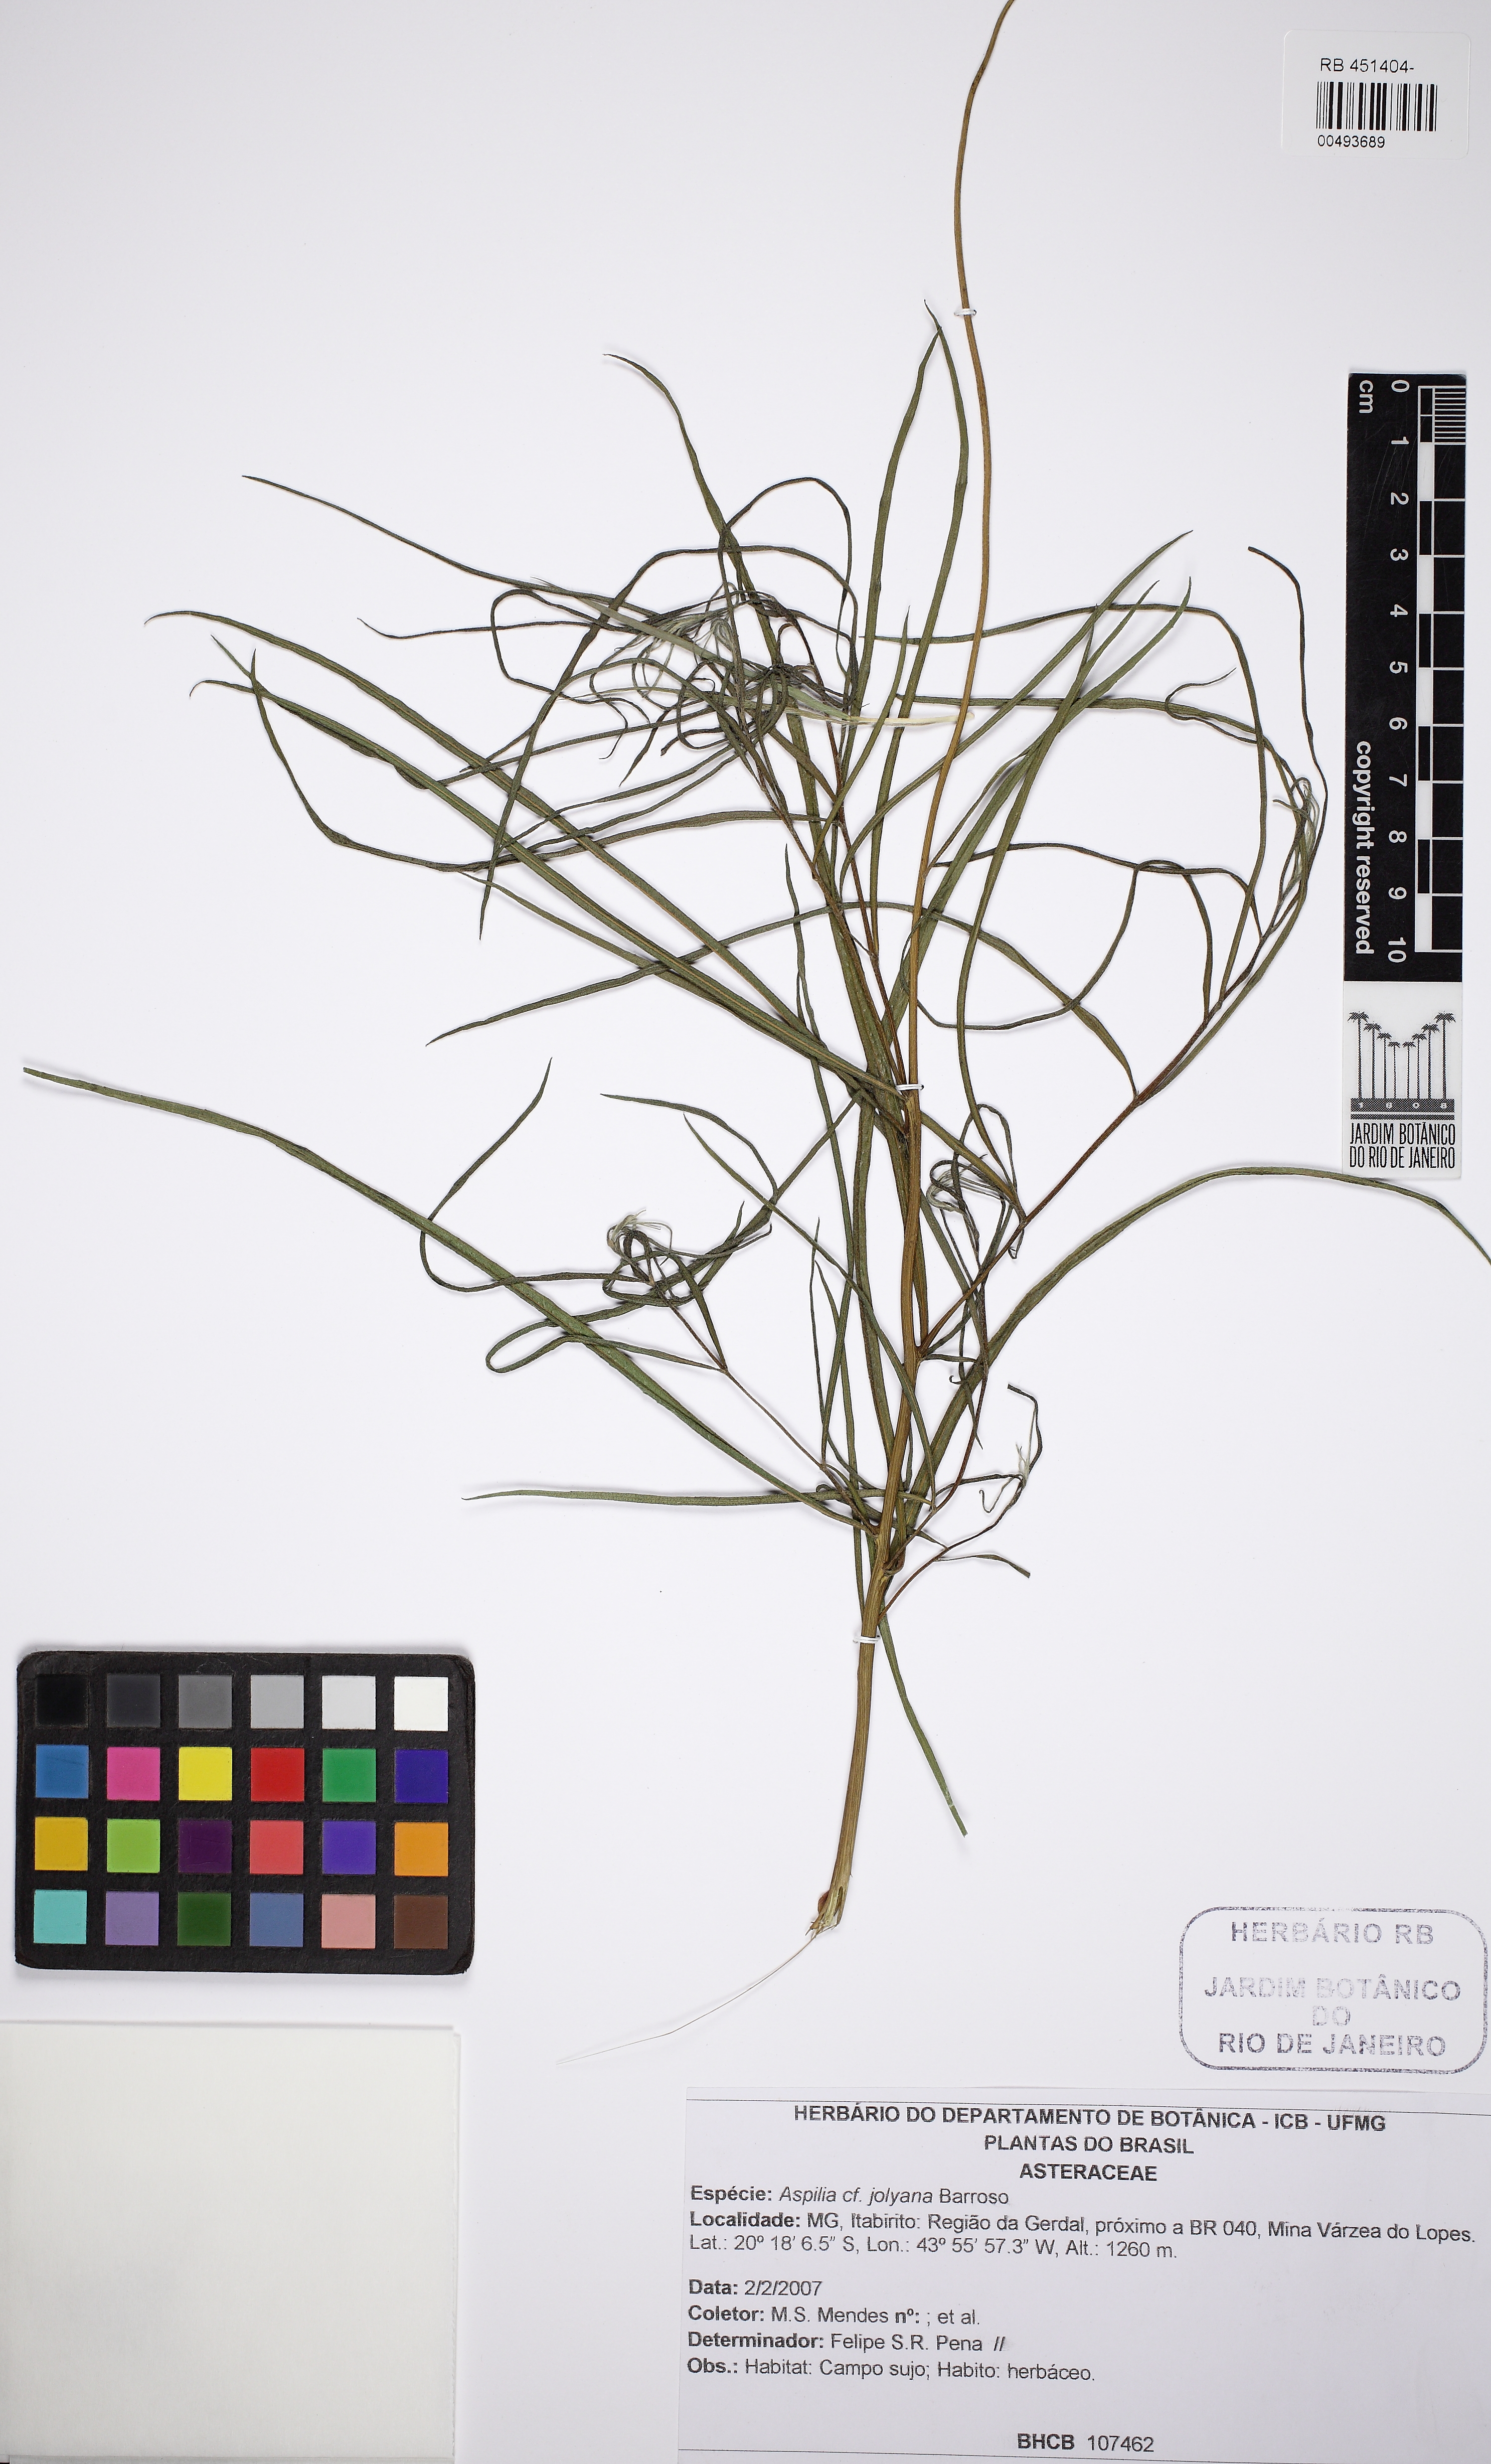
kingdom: Plantae
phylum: Tracheophyta
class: Magnoliopsida
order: Asterales
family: Asteraceae
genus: Aldama
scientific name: Aldama
